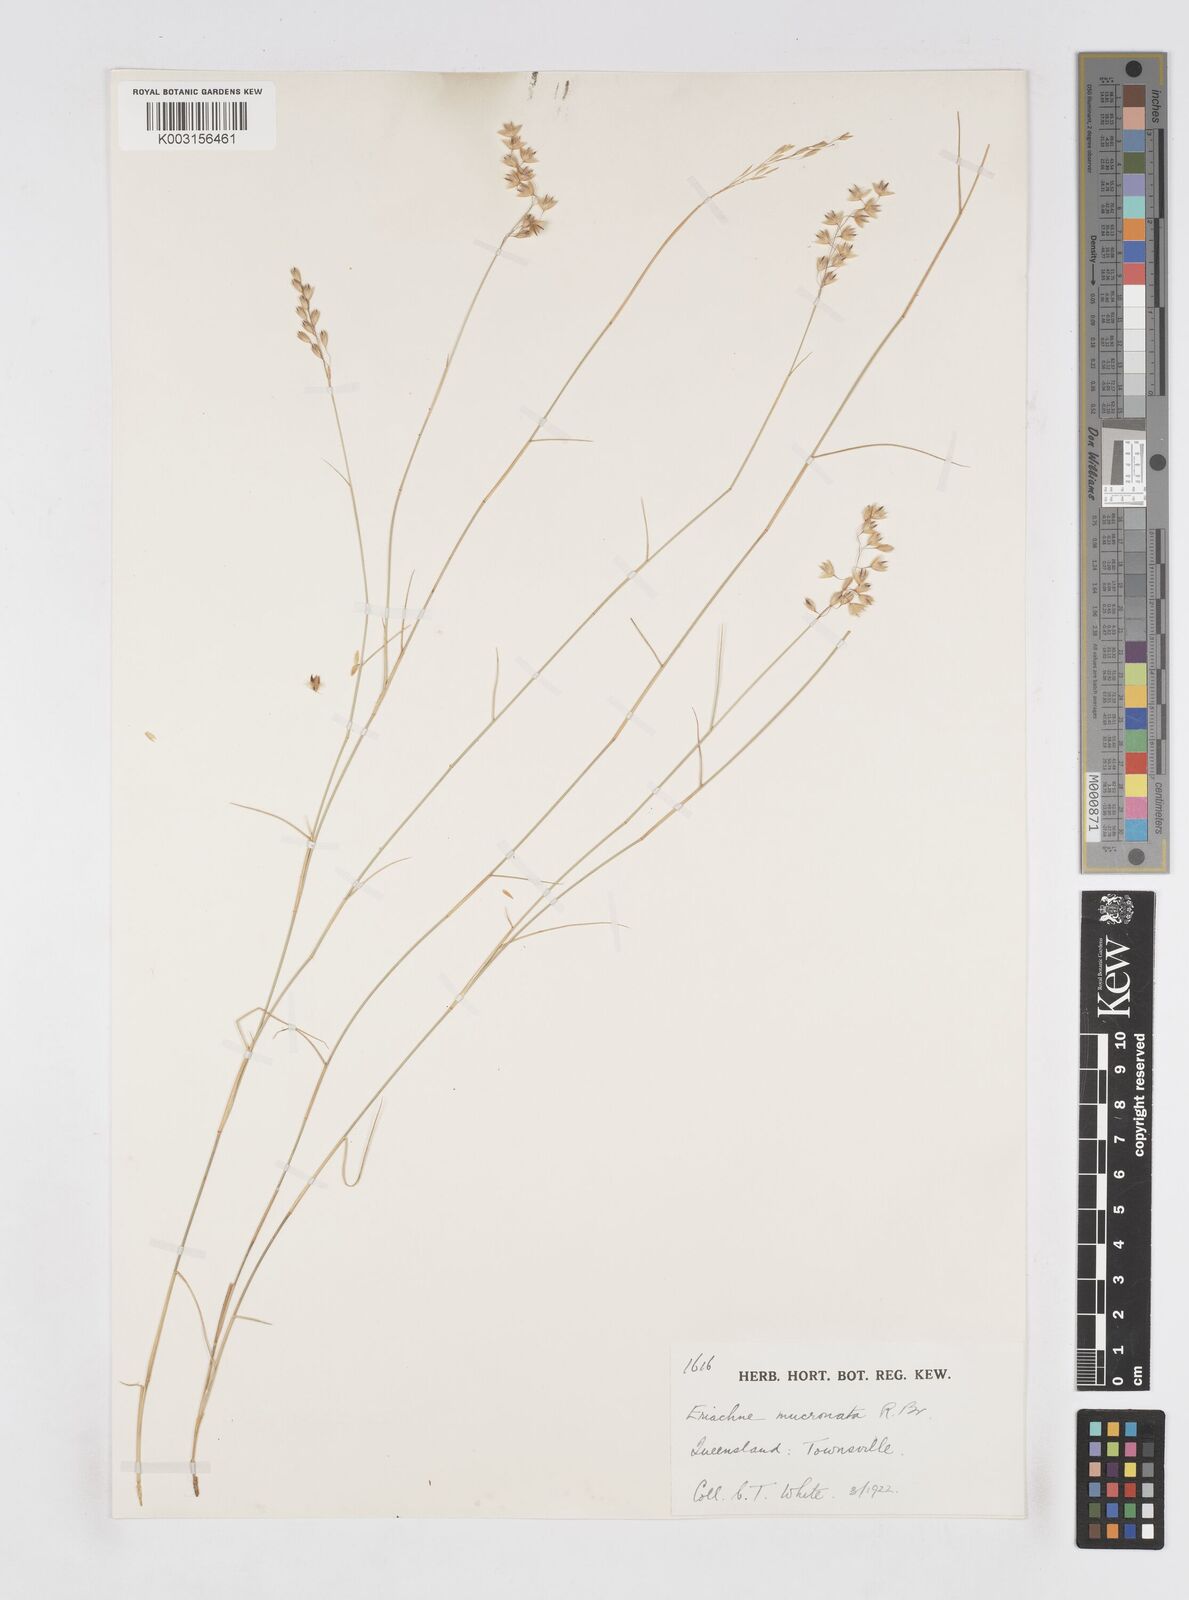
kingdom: Plantae
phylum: Tracheophyta
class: Liliopsida
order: Poales
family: Poaceae
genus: Eriachne
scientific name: Eriachne mucronata
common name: Mountain wanderrie grass
